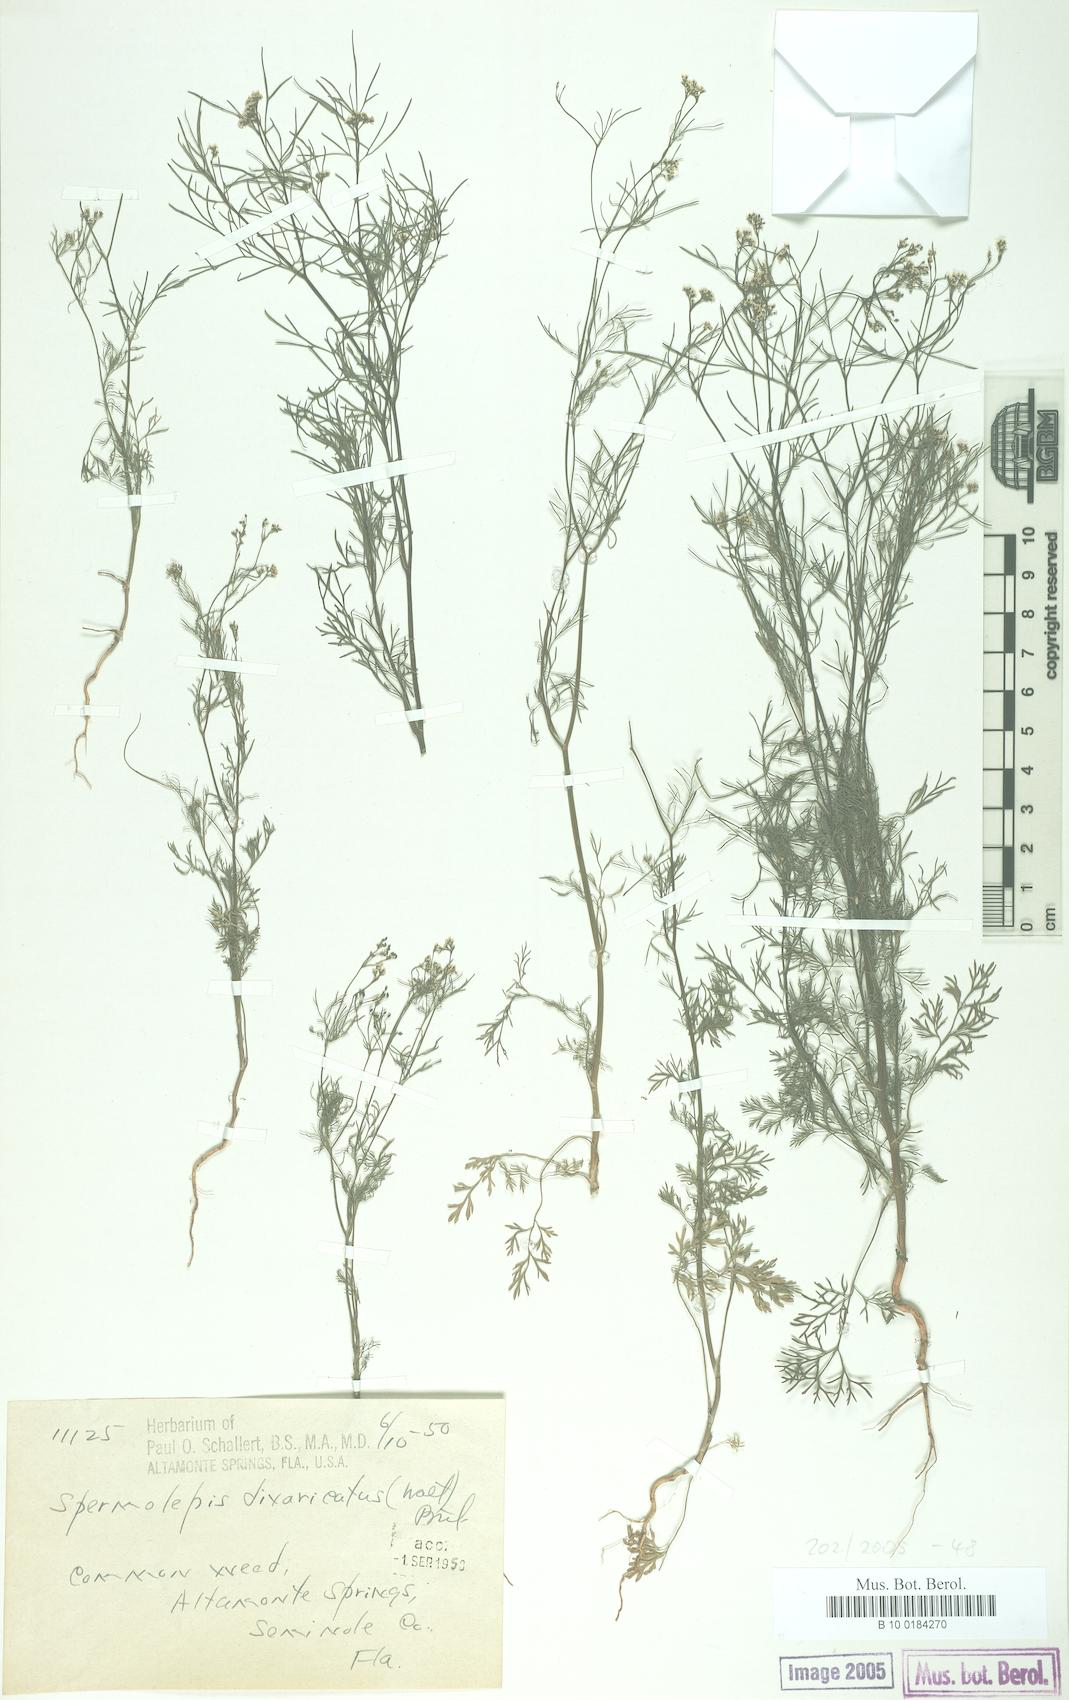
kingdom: Plantae
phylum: Tracheophyta
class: Magnoliopsida
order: Apiales
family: Apiaceae
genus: Spermolepis
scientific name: Spermolepis divaricata
